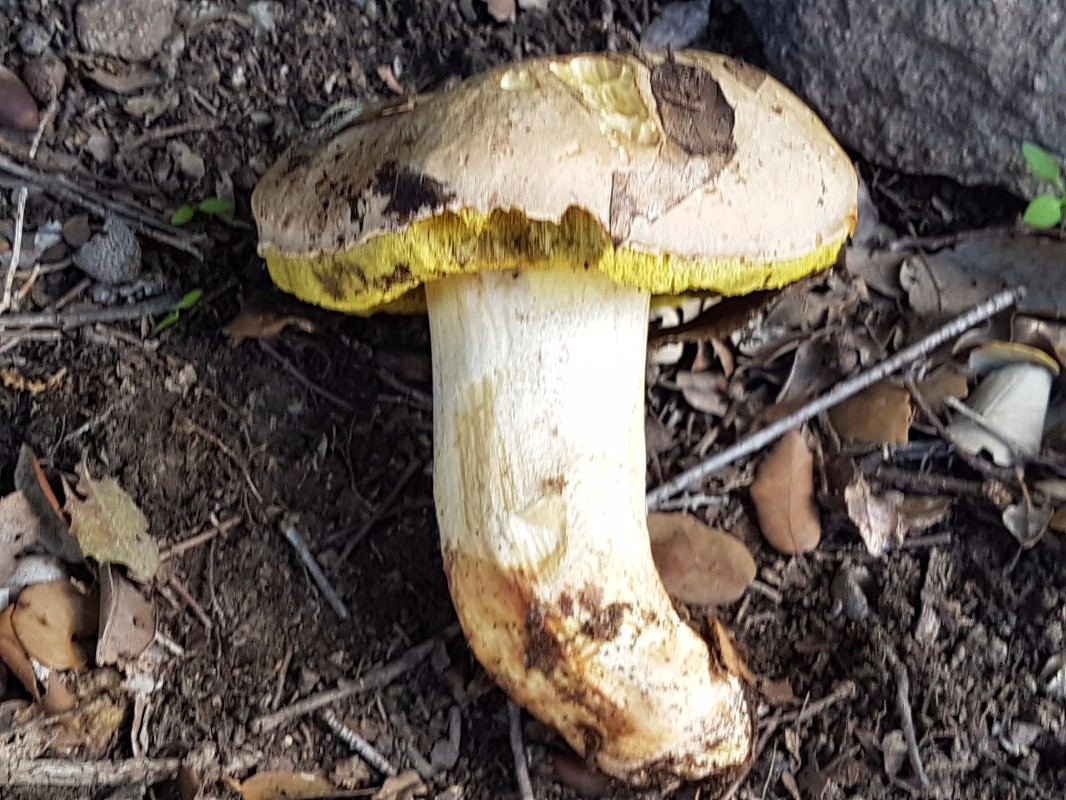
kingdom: Fungi
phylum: Basidiomycota
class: Agaricomycetes
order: Boletales
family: Boletaceae
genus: Hemileccinum
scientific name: Hemileccinum impolitum
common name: bleg rørhat
